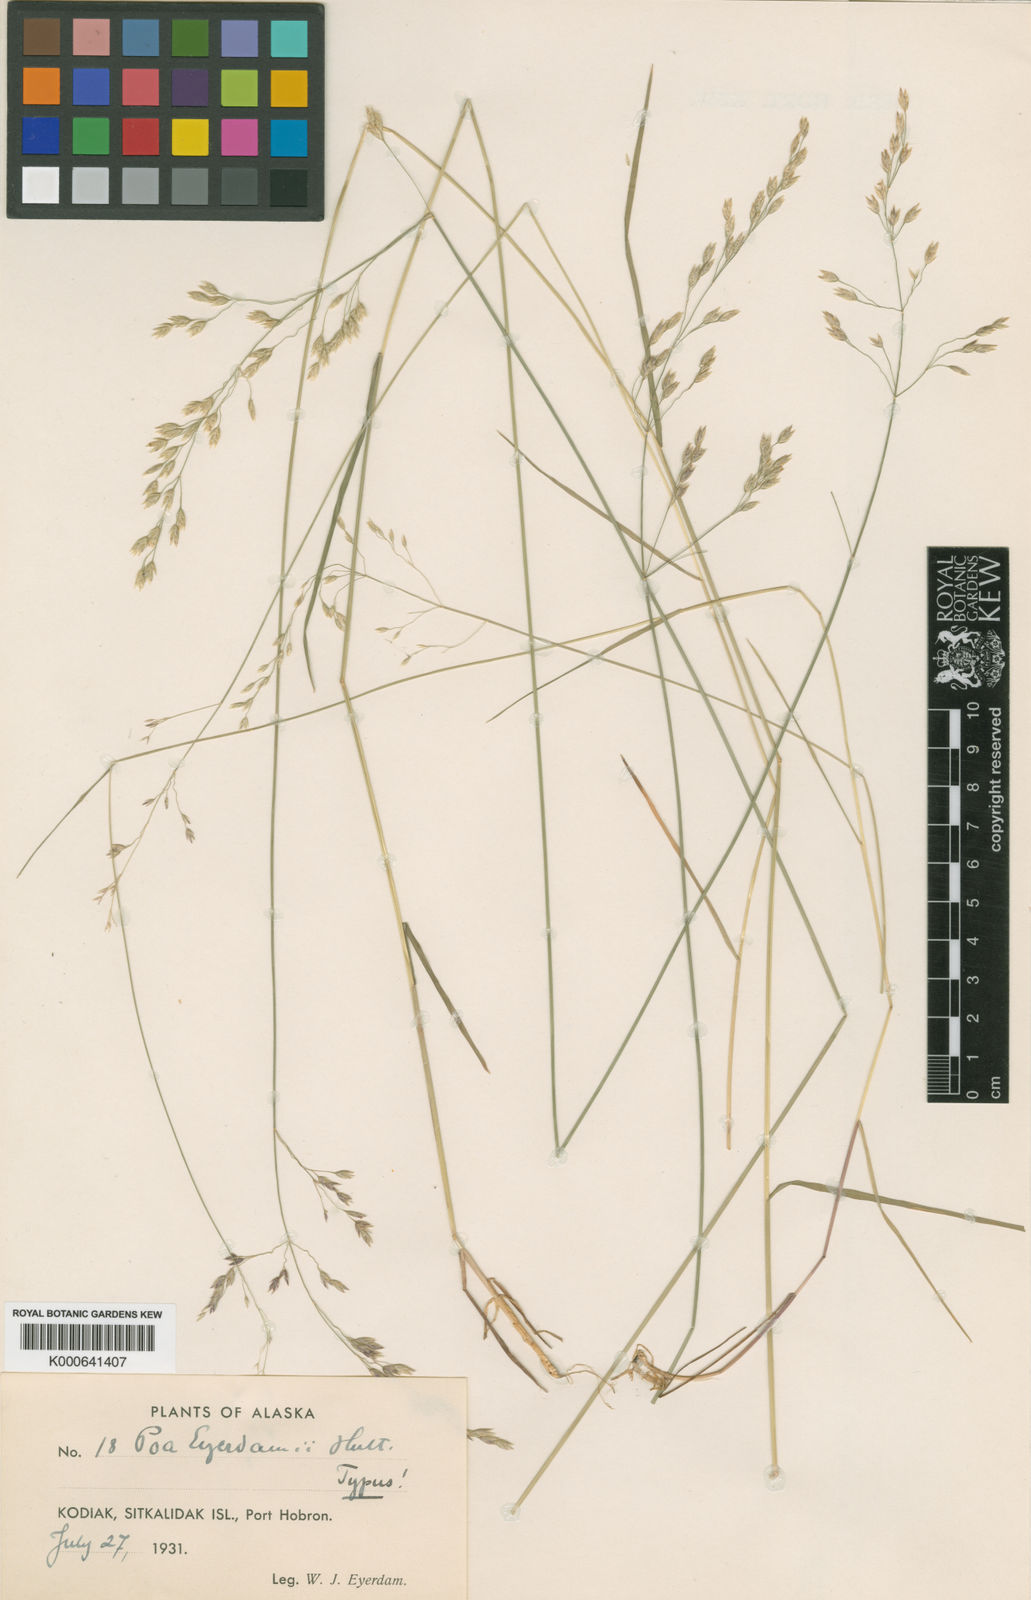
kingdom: Plantae
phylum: Tracheophyta
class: Liliopsida
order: Poales
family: Poaceae
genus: Poa
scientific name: Poa
